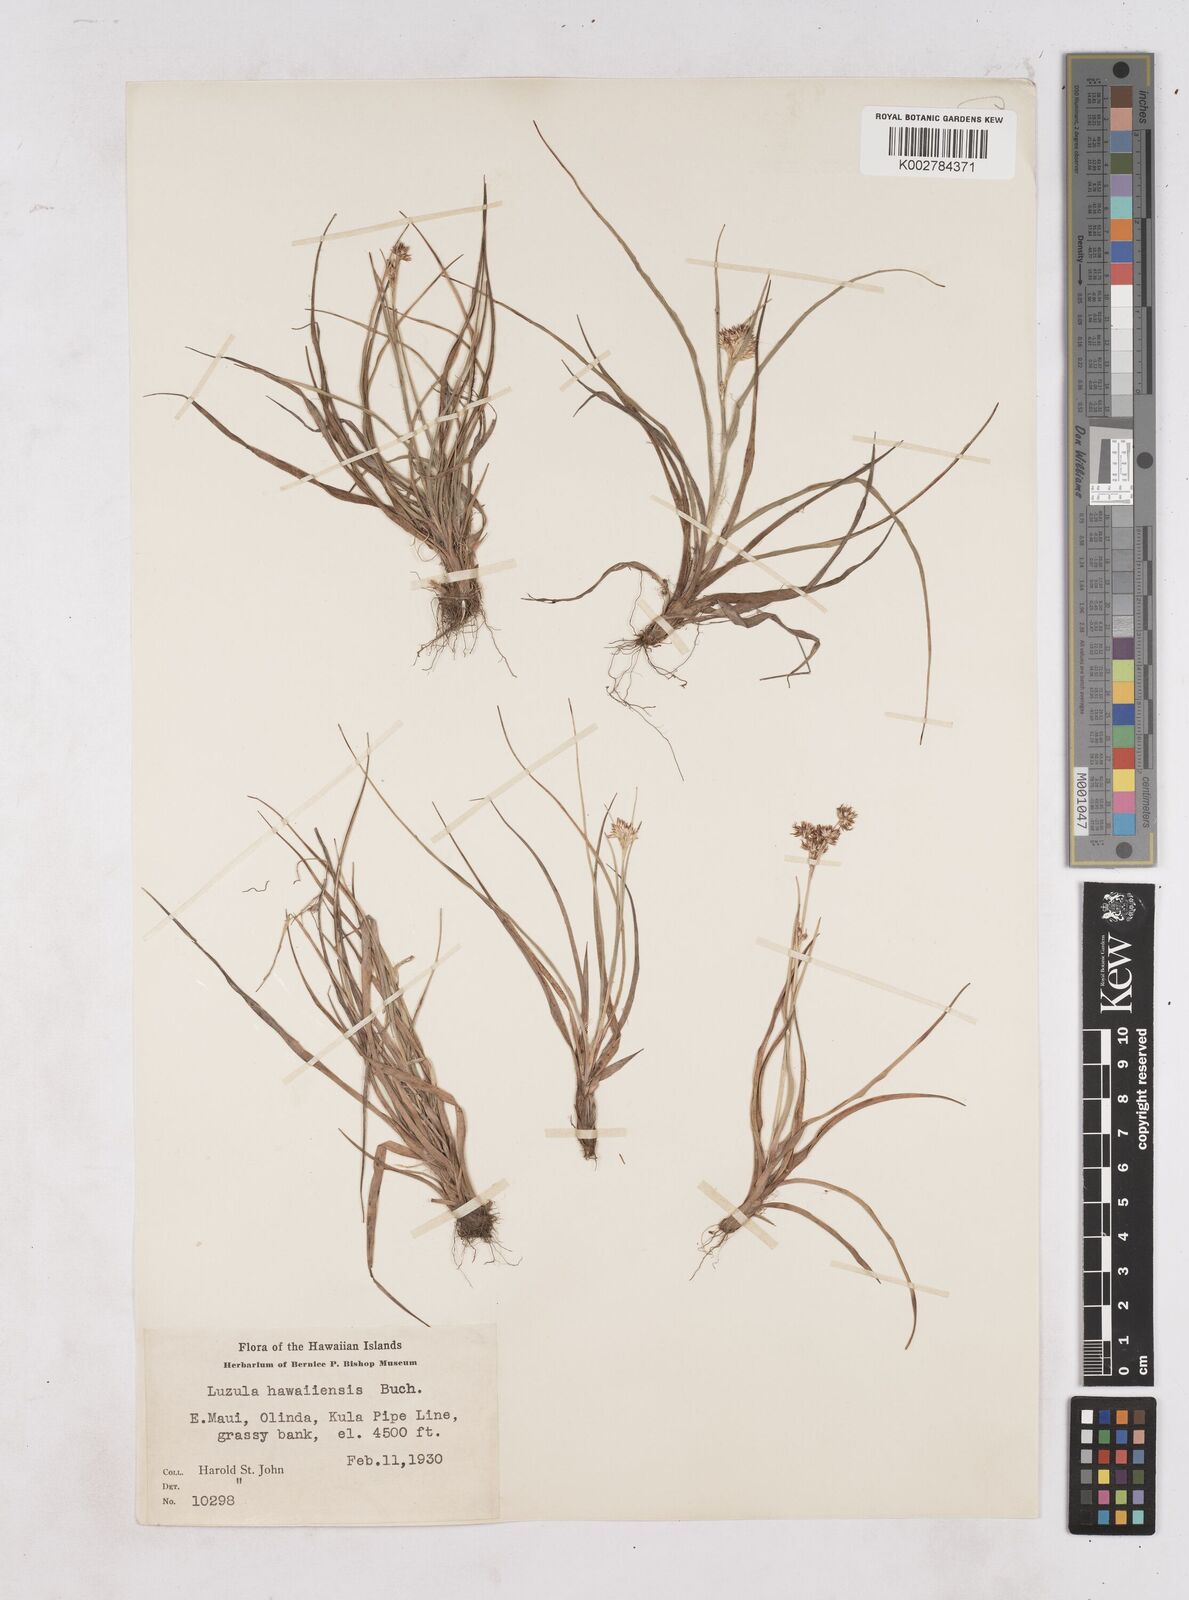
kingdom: Plantae
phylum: Tracheophyta
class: Liliopsida
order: Poales
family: Juncaceae
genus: Luzula
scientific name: Luzula campestris
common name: Field wood-rush
